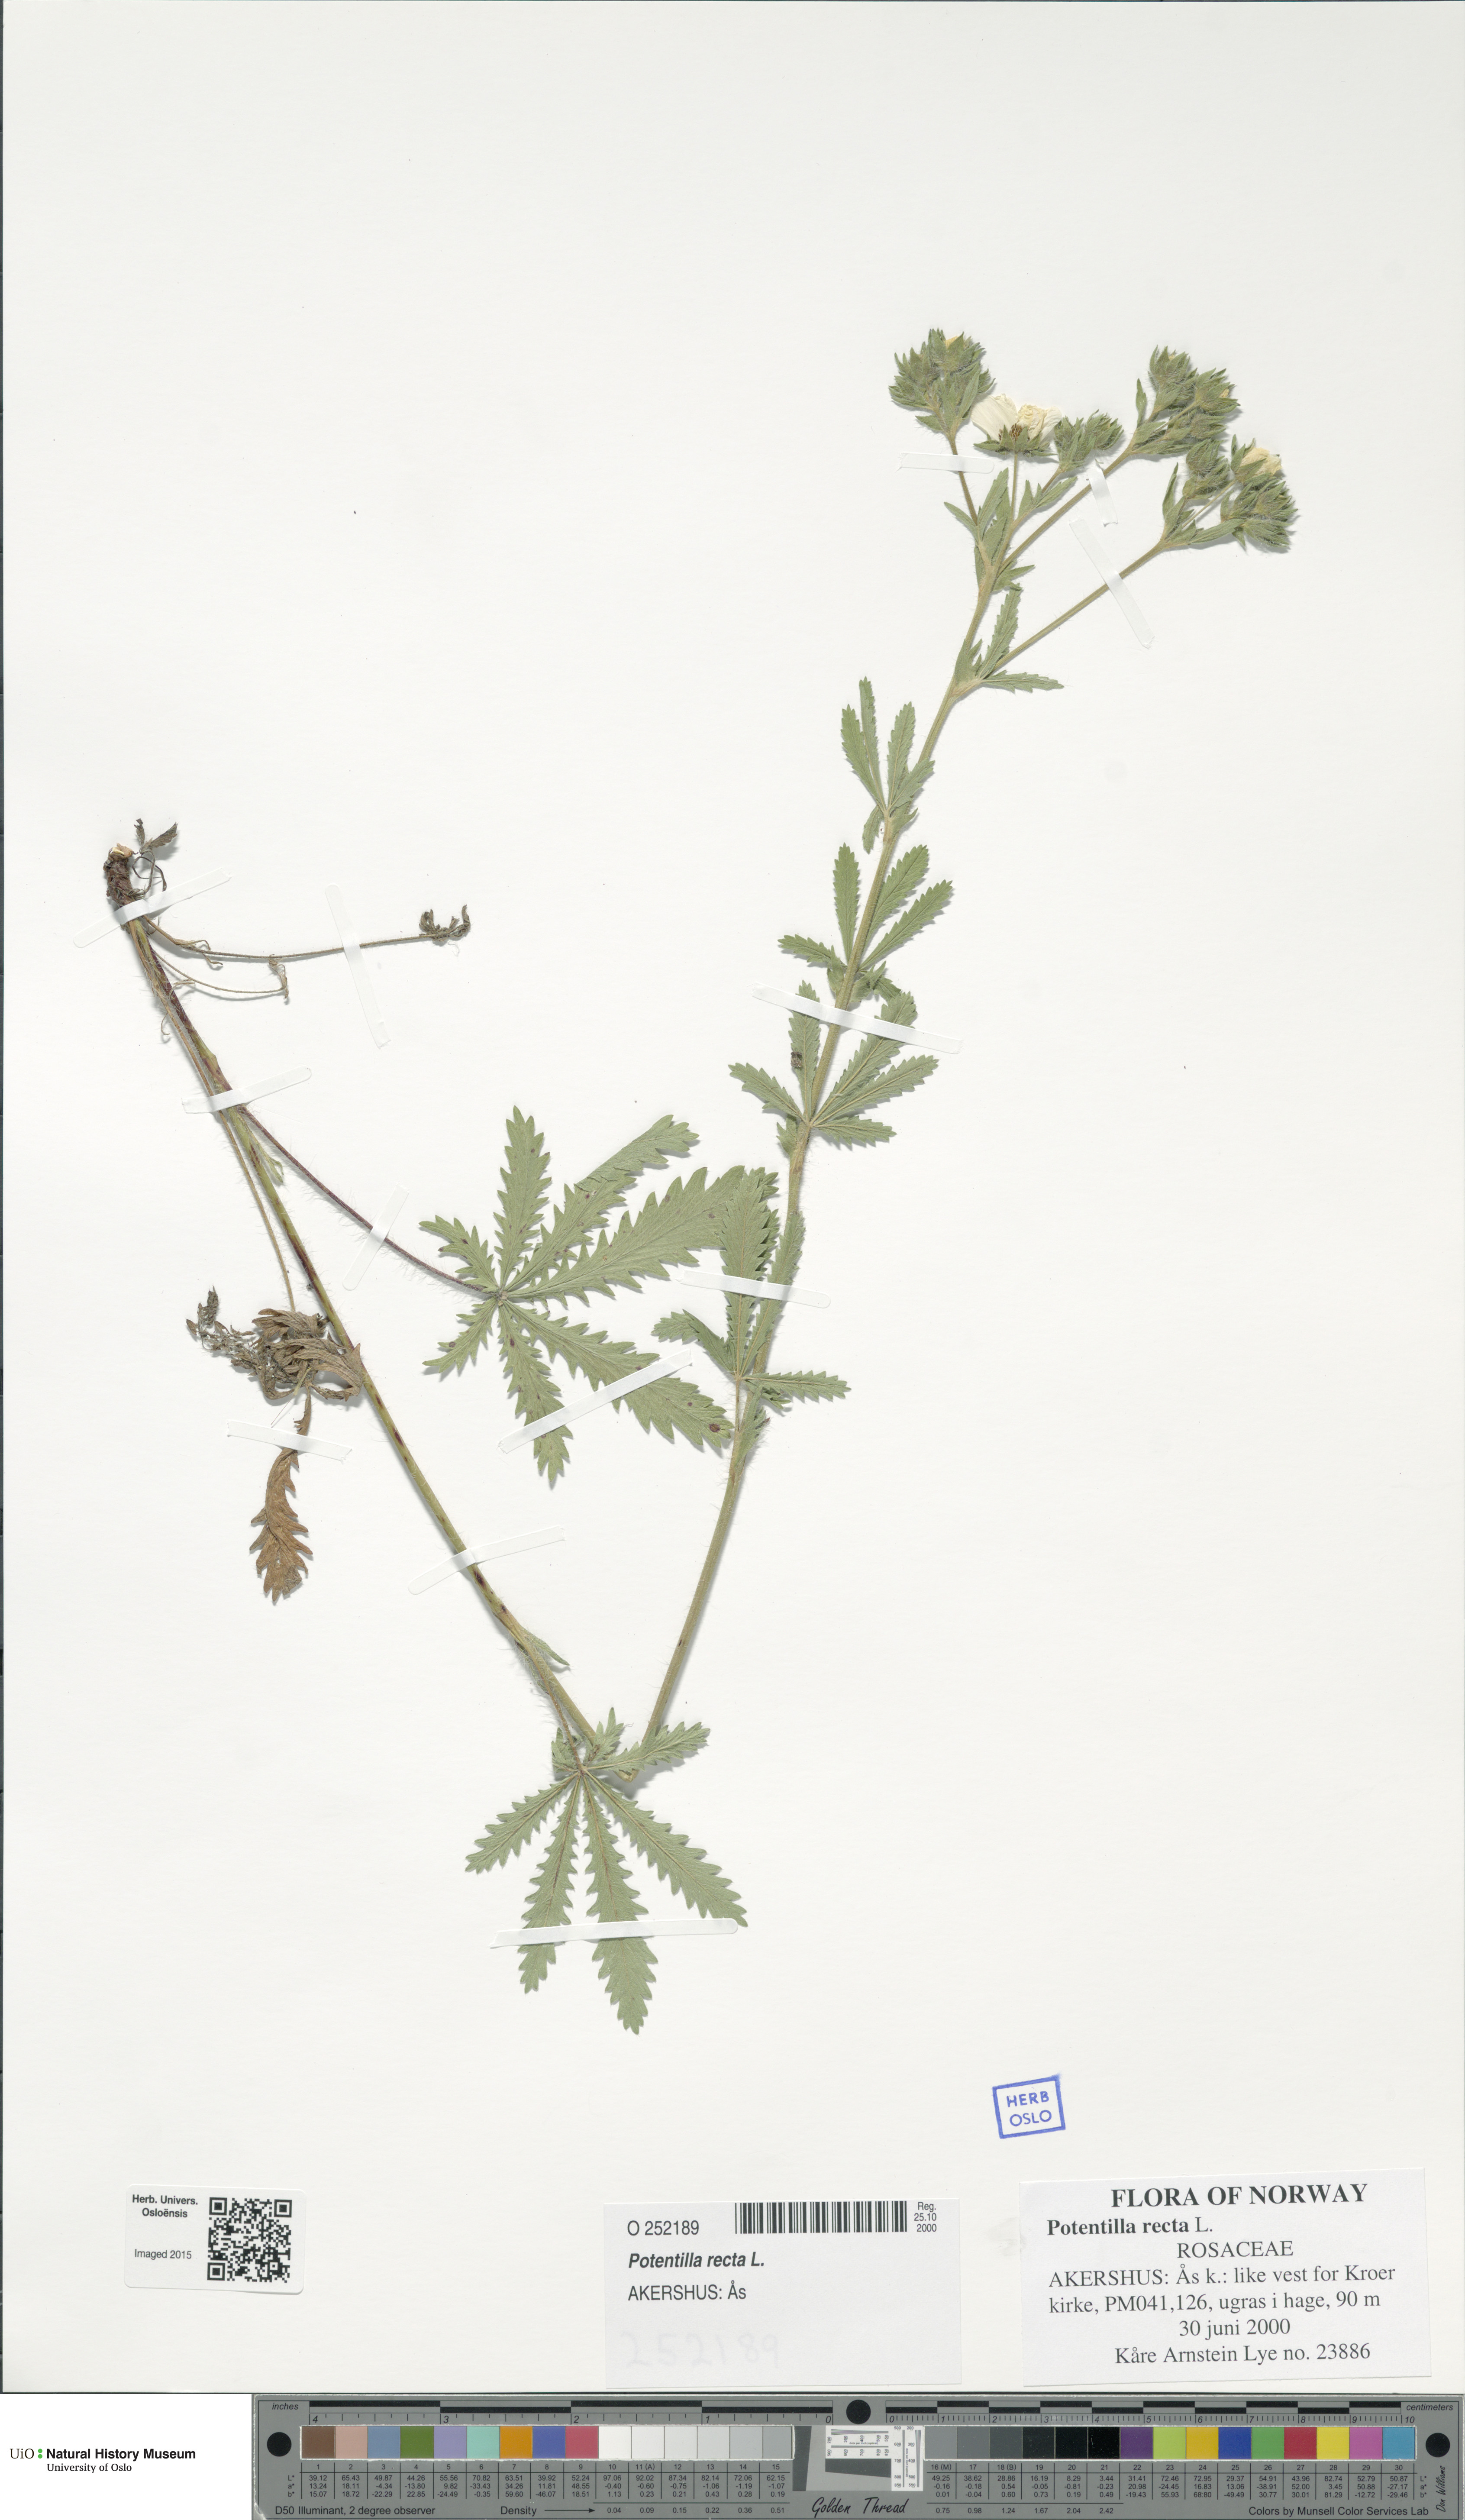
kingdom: Plantae
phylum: Tracheophyta
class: Magnoliopsida
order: Rosales
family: Rosaceae
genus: Potentilla
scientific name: Potentilla recta
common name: Sulphur cinquefoil
